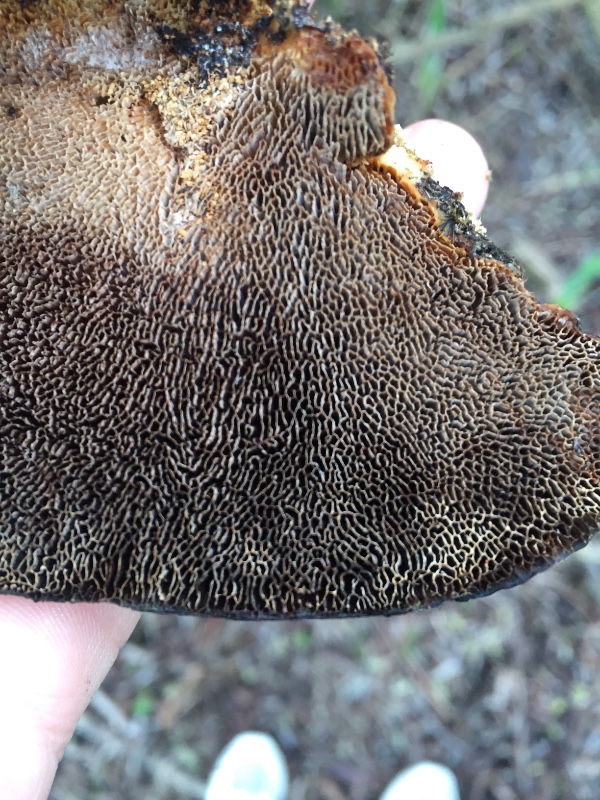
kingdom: Fungi
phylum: Basidiomycota
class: Agaricomycetes
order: Polyporales
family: Polyporaceae
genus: Daedaleopsis
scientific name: Daedaleopsis confragosa
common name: rødmende læderporesvamp
